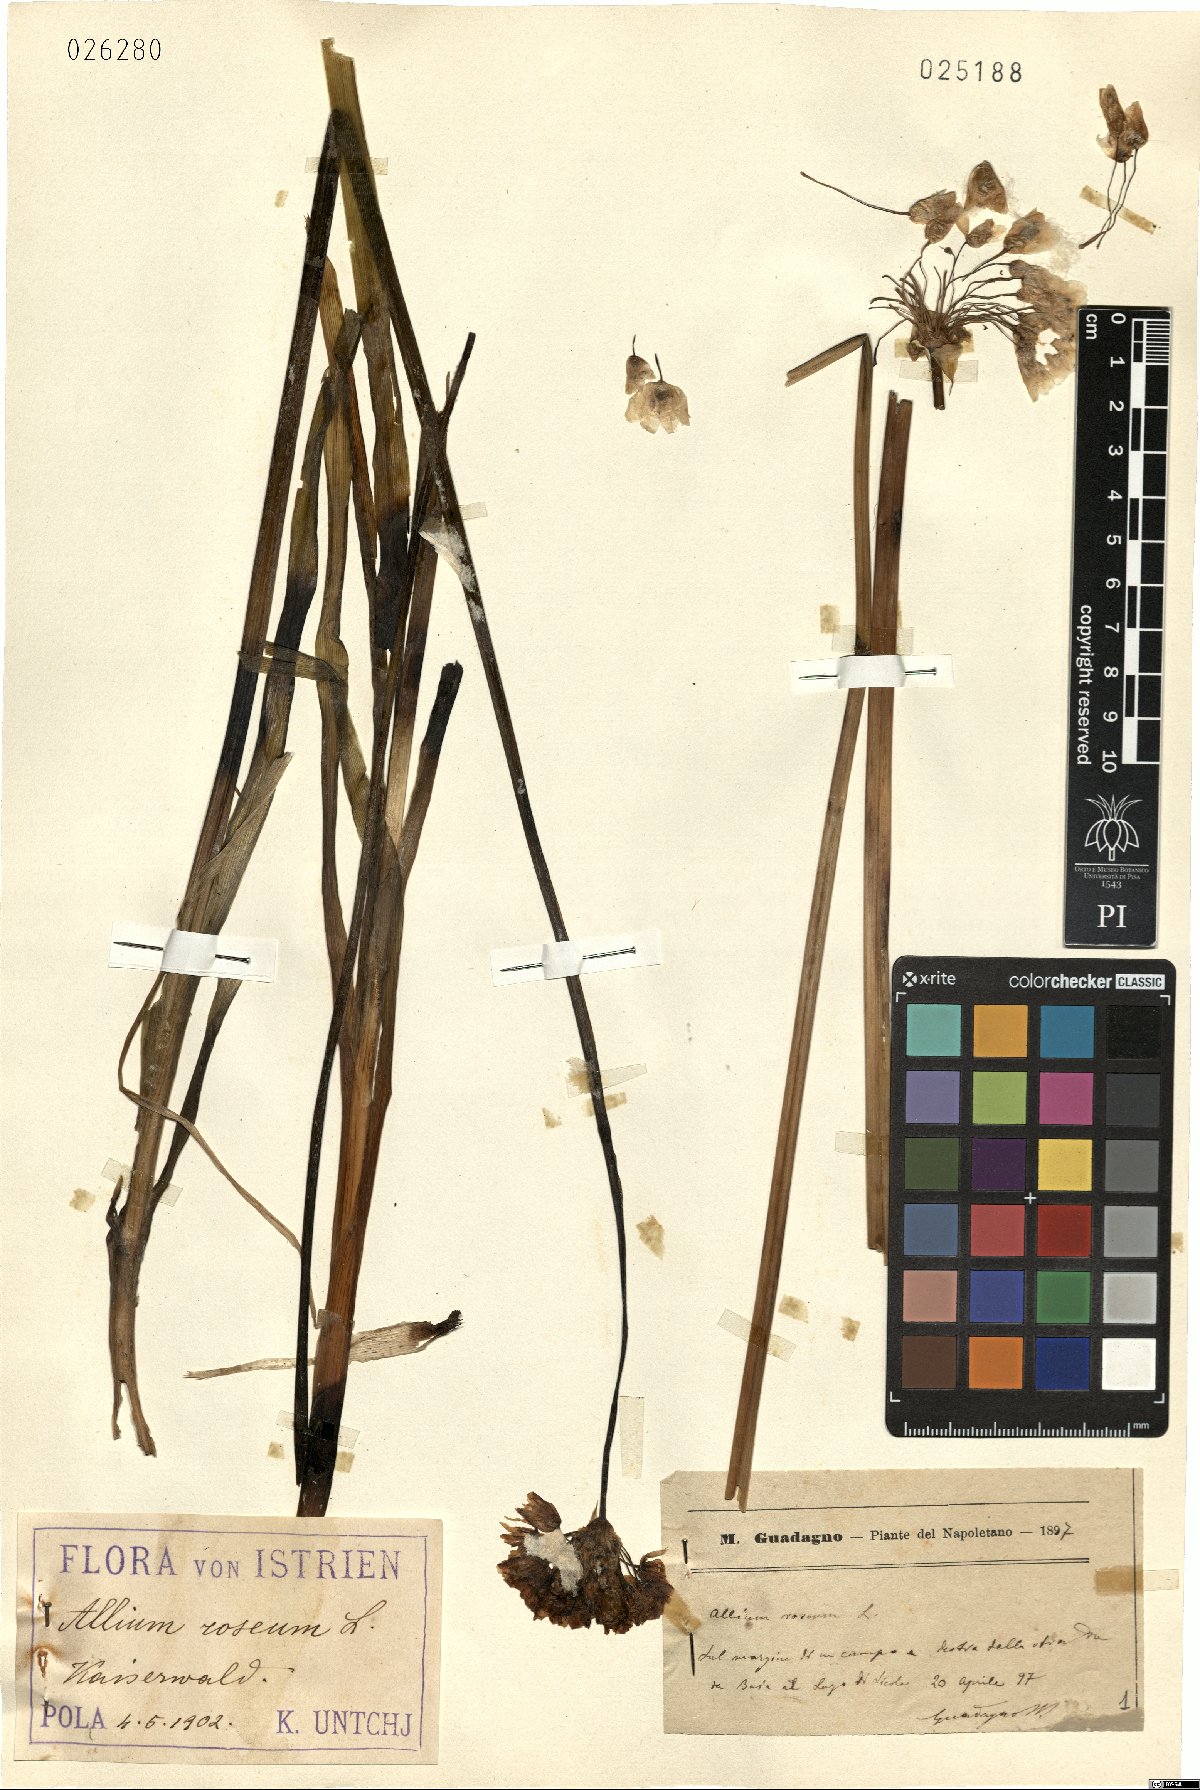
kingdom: Plantae
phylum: Tracheophyta
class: Liliopsida
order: Asparagales
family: Amaryllidaceae
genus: Allium
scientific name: Allium roseum
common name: Rosy garlic
